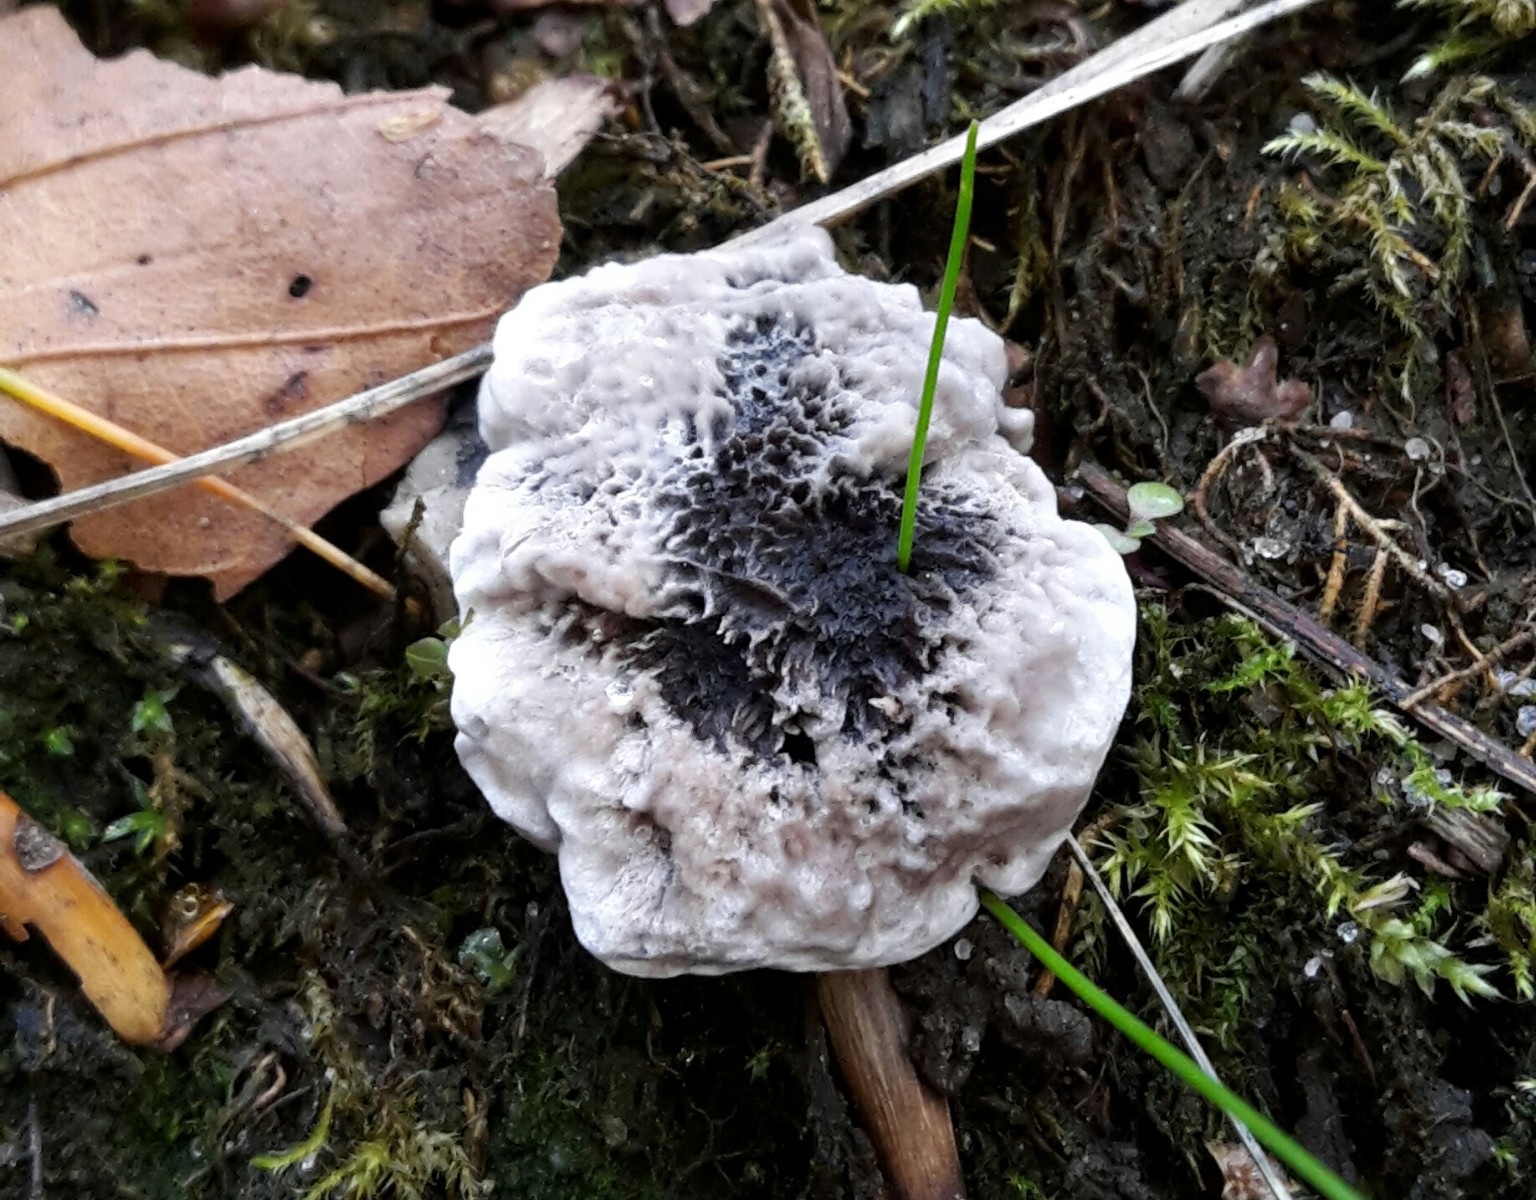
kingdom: Fungi
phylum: Basidiomycota
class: Agaricomycetes
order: Thelephorales
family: Thelephoraceae
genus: Phellodon
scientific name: Phellodon confluens
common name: pjaltet duftpigsvamp
